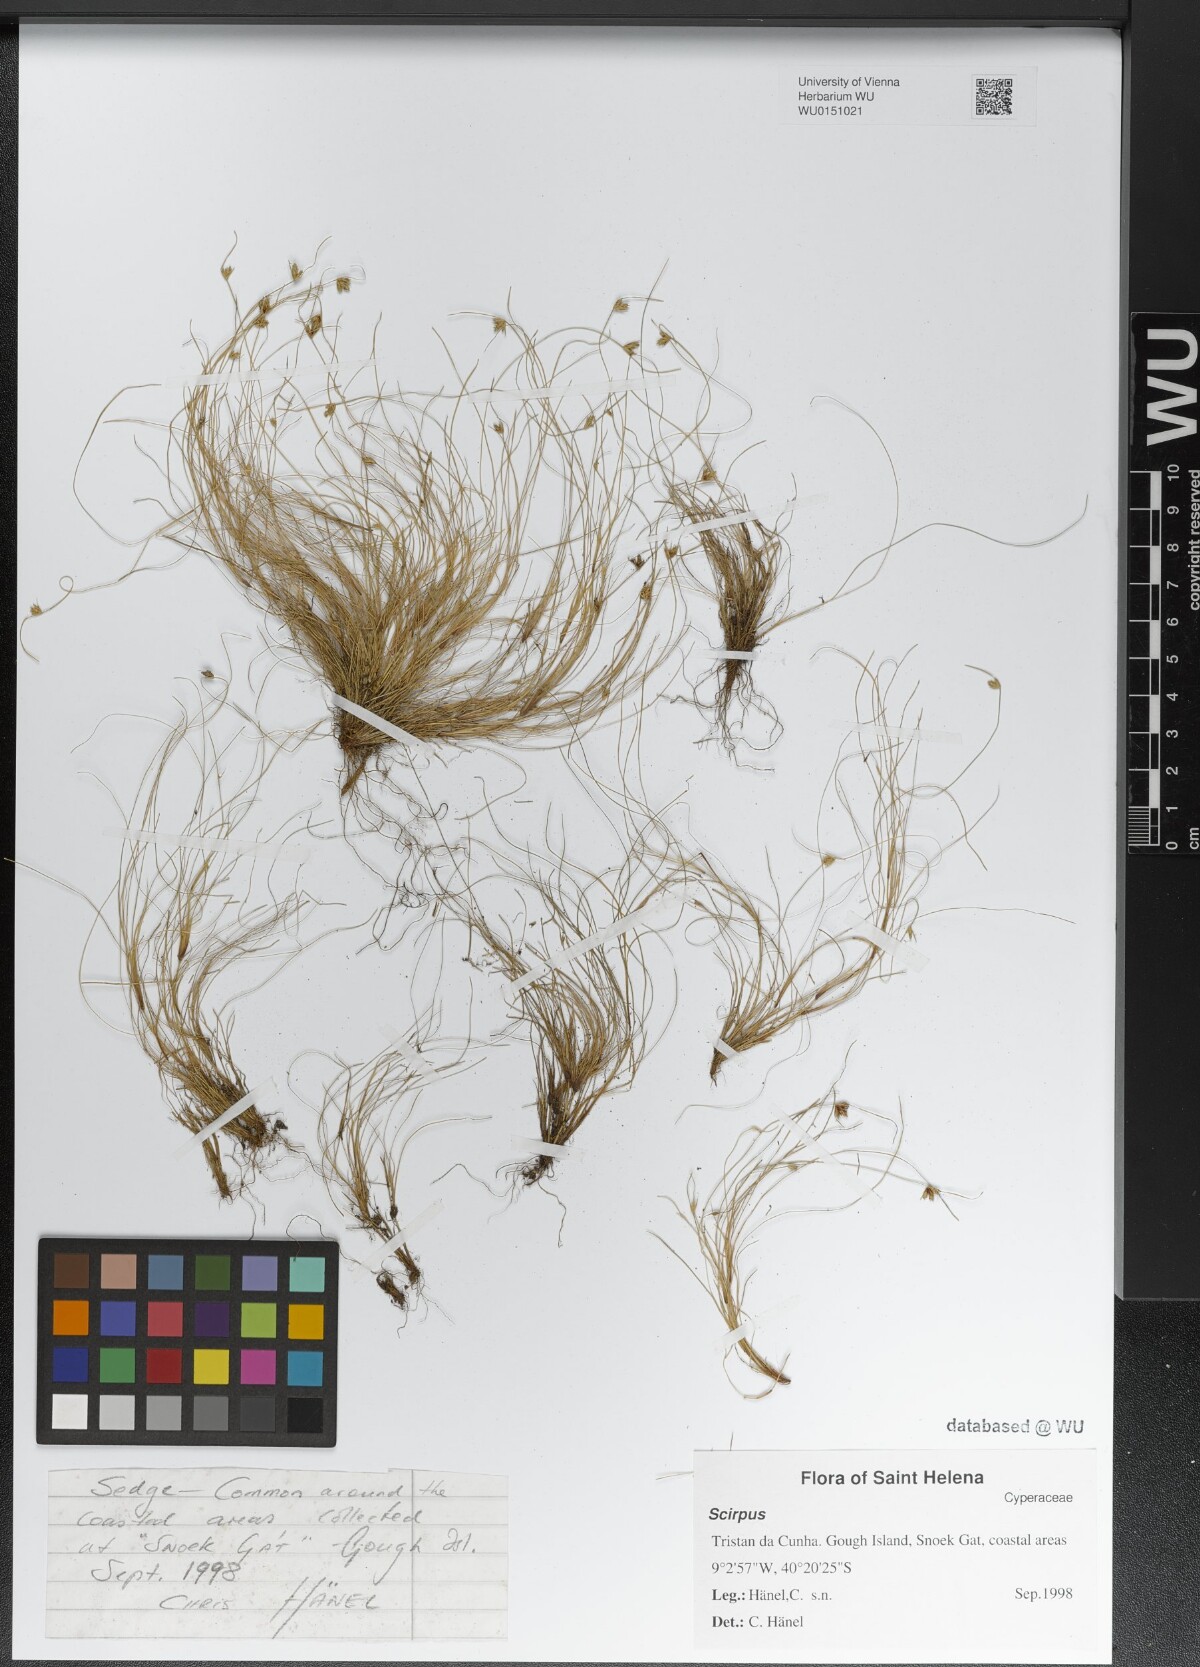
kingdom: Plantae
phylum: Tracheophyta
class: Liliopsida
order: Poales
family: Cyperaceae
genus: Scirpus
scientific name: Scirpus
